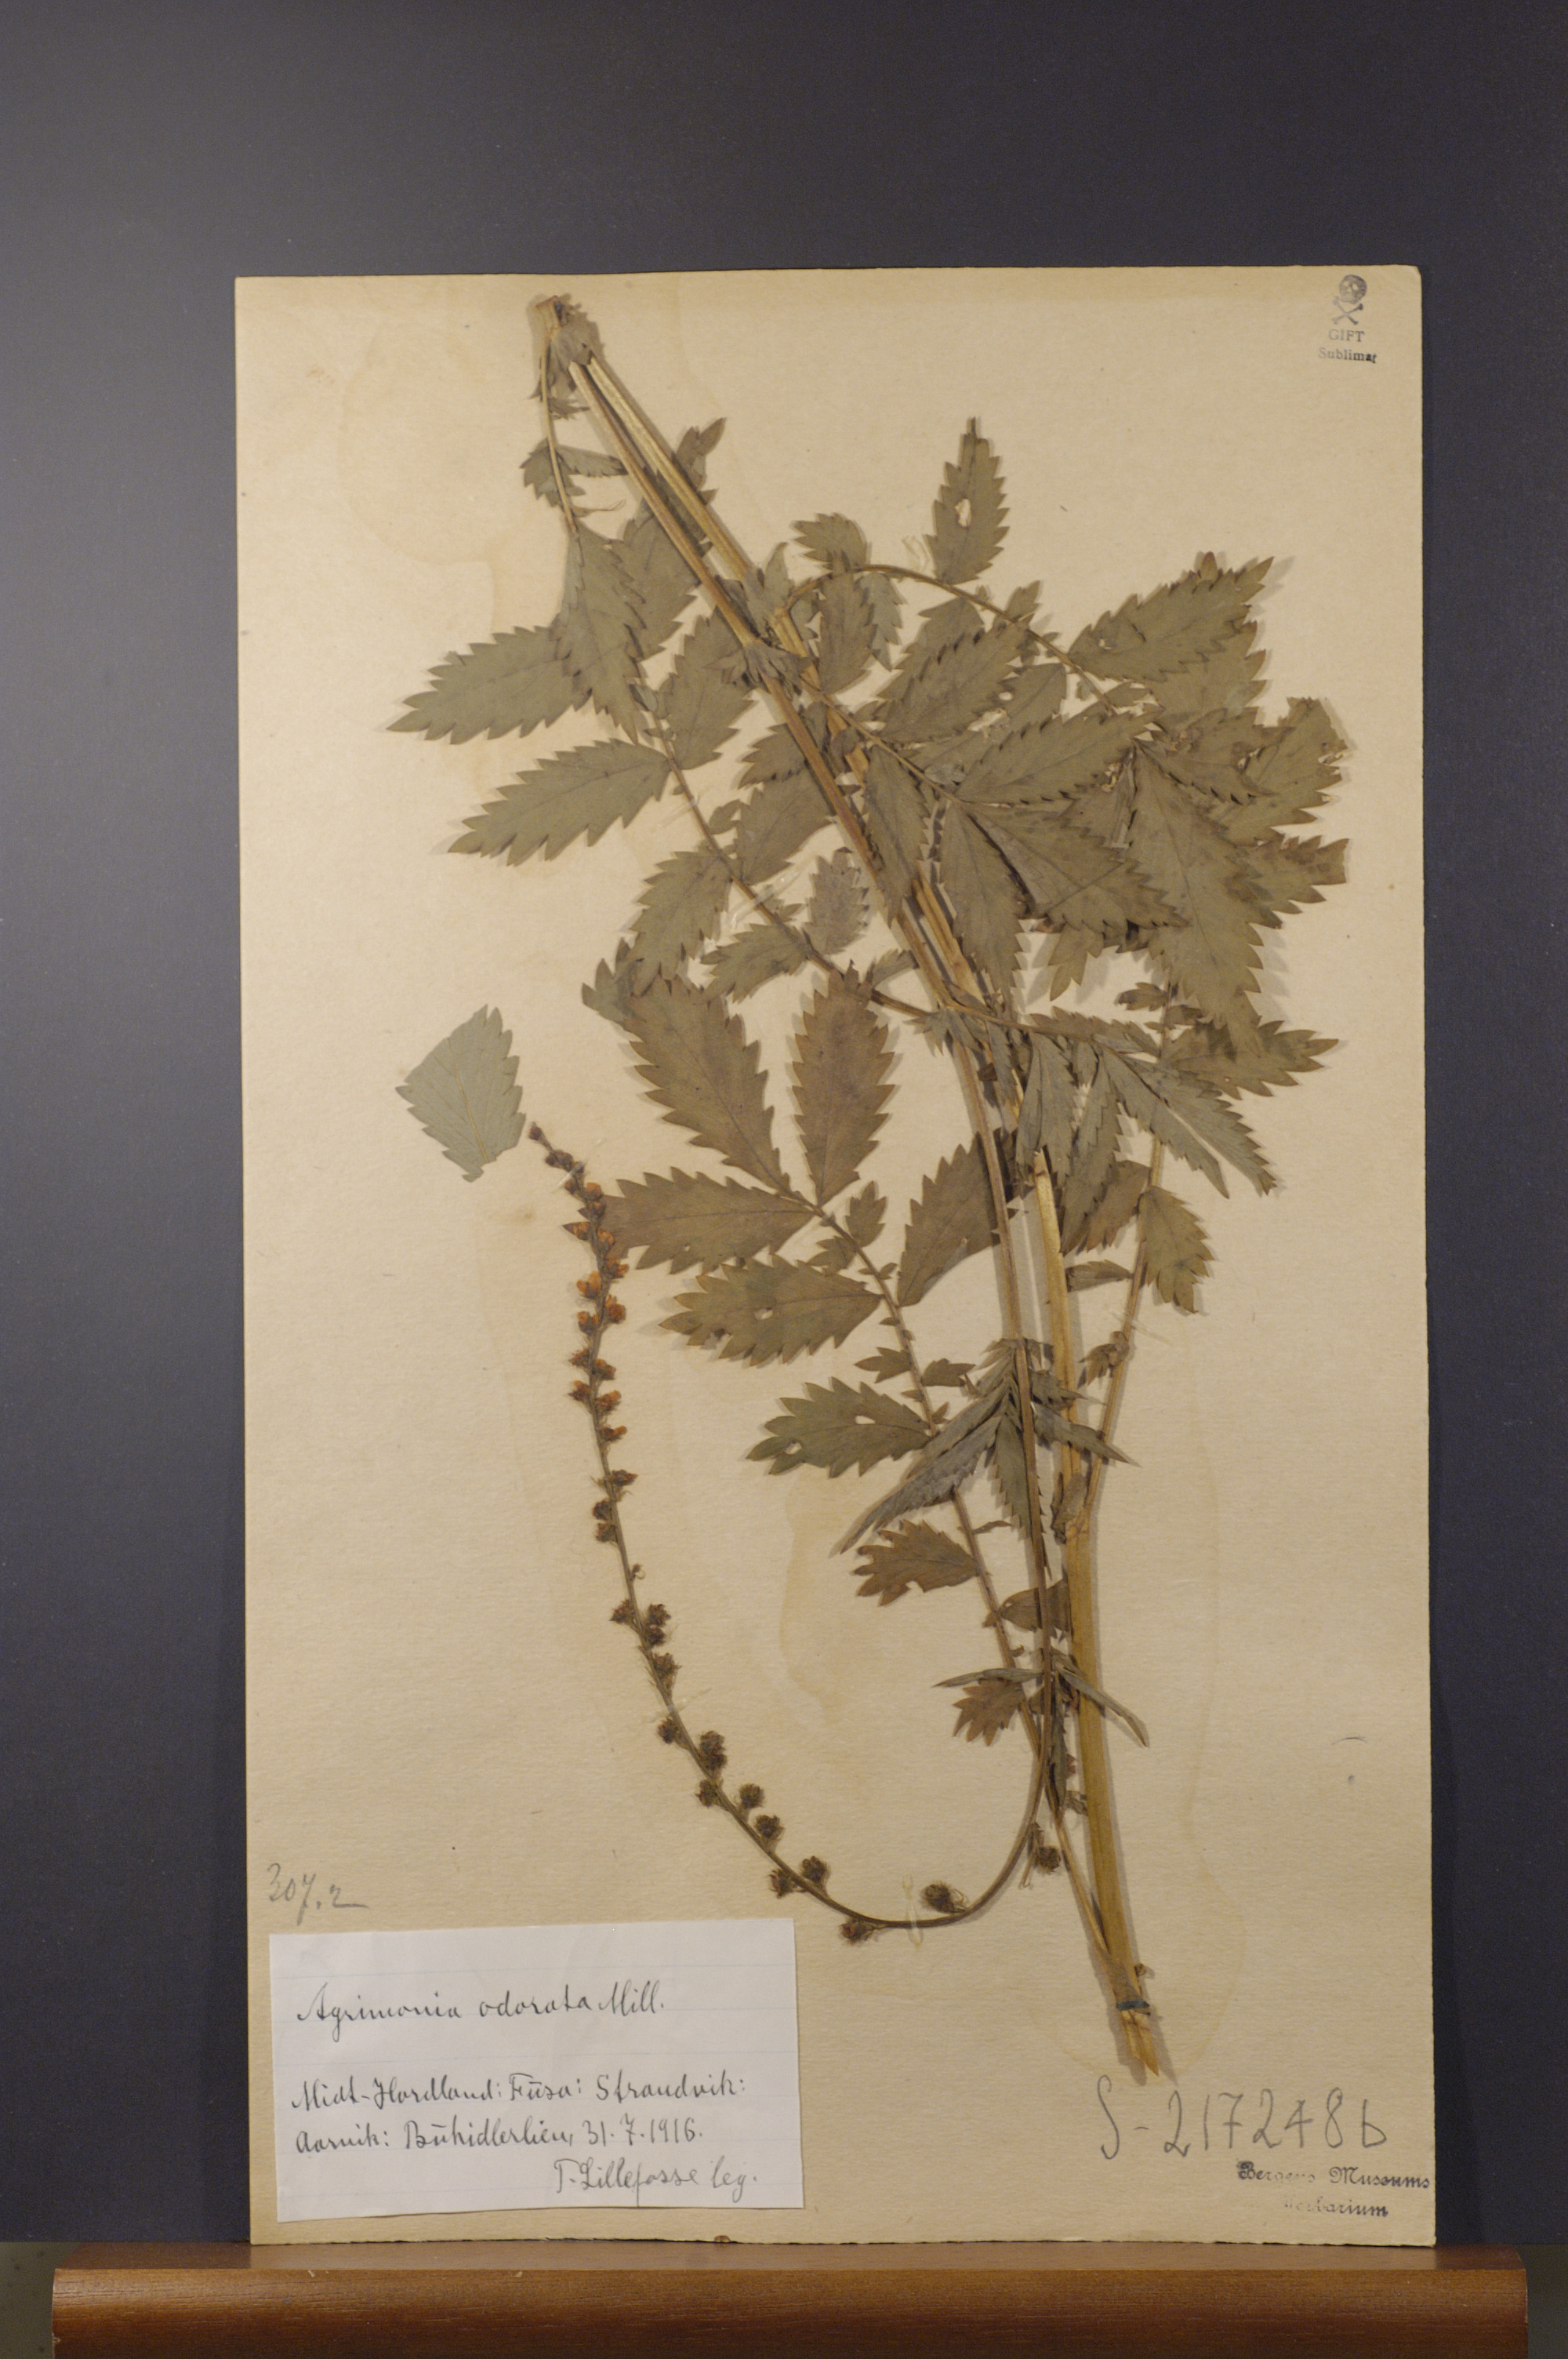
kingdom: Plantae
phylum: Tracheophyta
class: Magnoliopsida
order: Rosales
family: Rosaceae
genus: Agrimonia
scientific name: Agrimonia procera
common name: Fragrant agrimony
